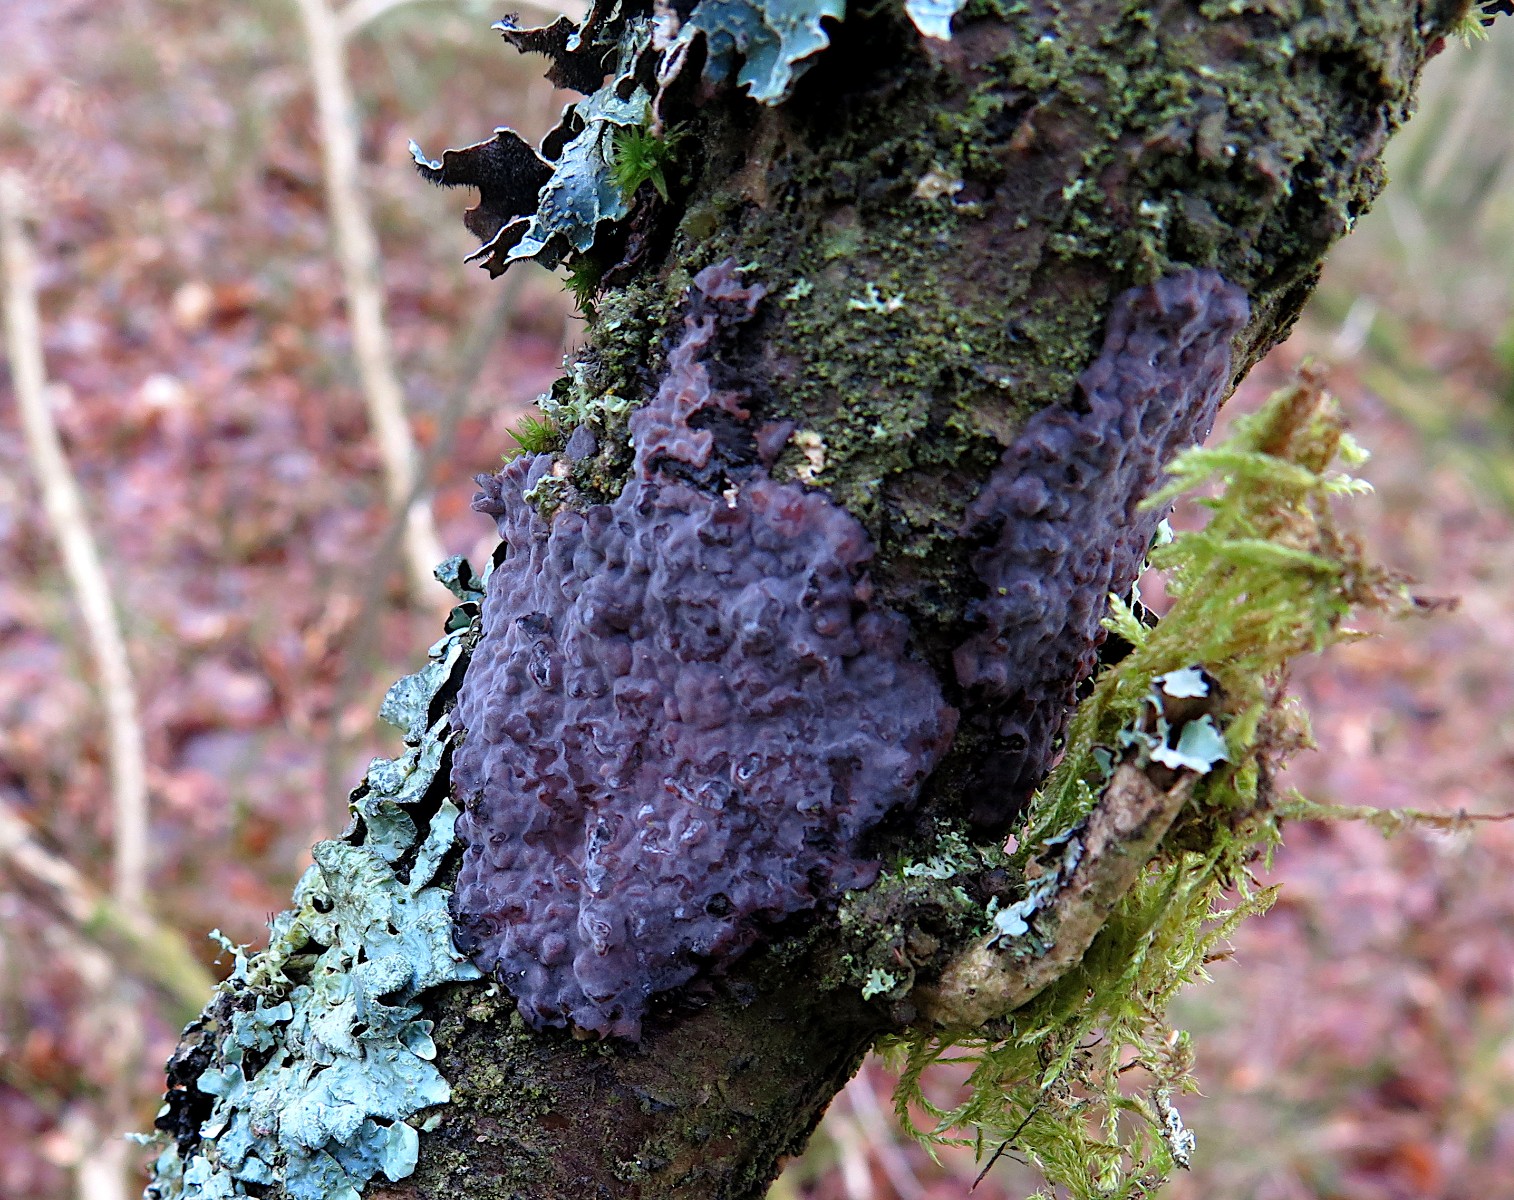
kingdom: Fungi
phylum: Basidiomycota
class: Agaricomycetes
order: Russulales
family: Peniophoraceae
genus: Peniophora
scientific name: Peniophora quercina
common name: ege-voksskind
